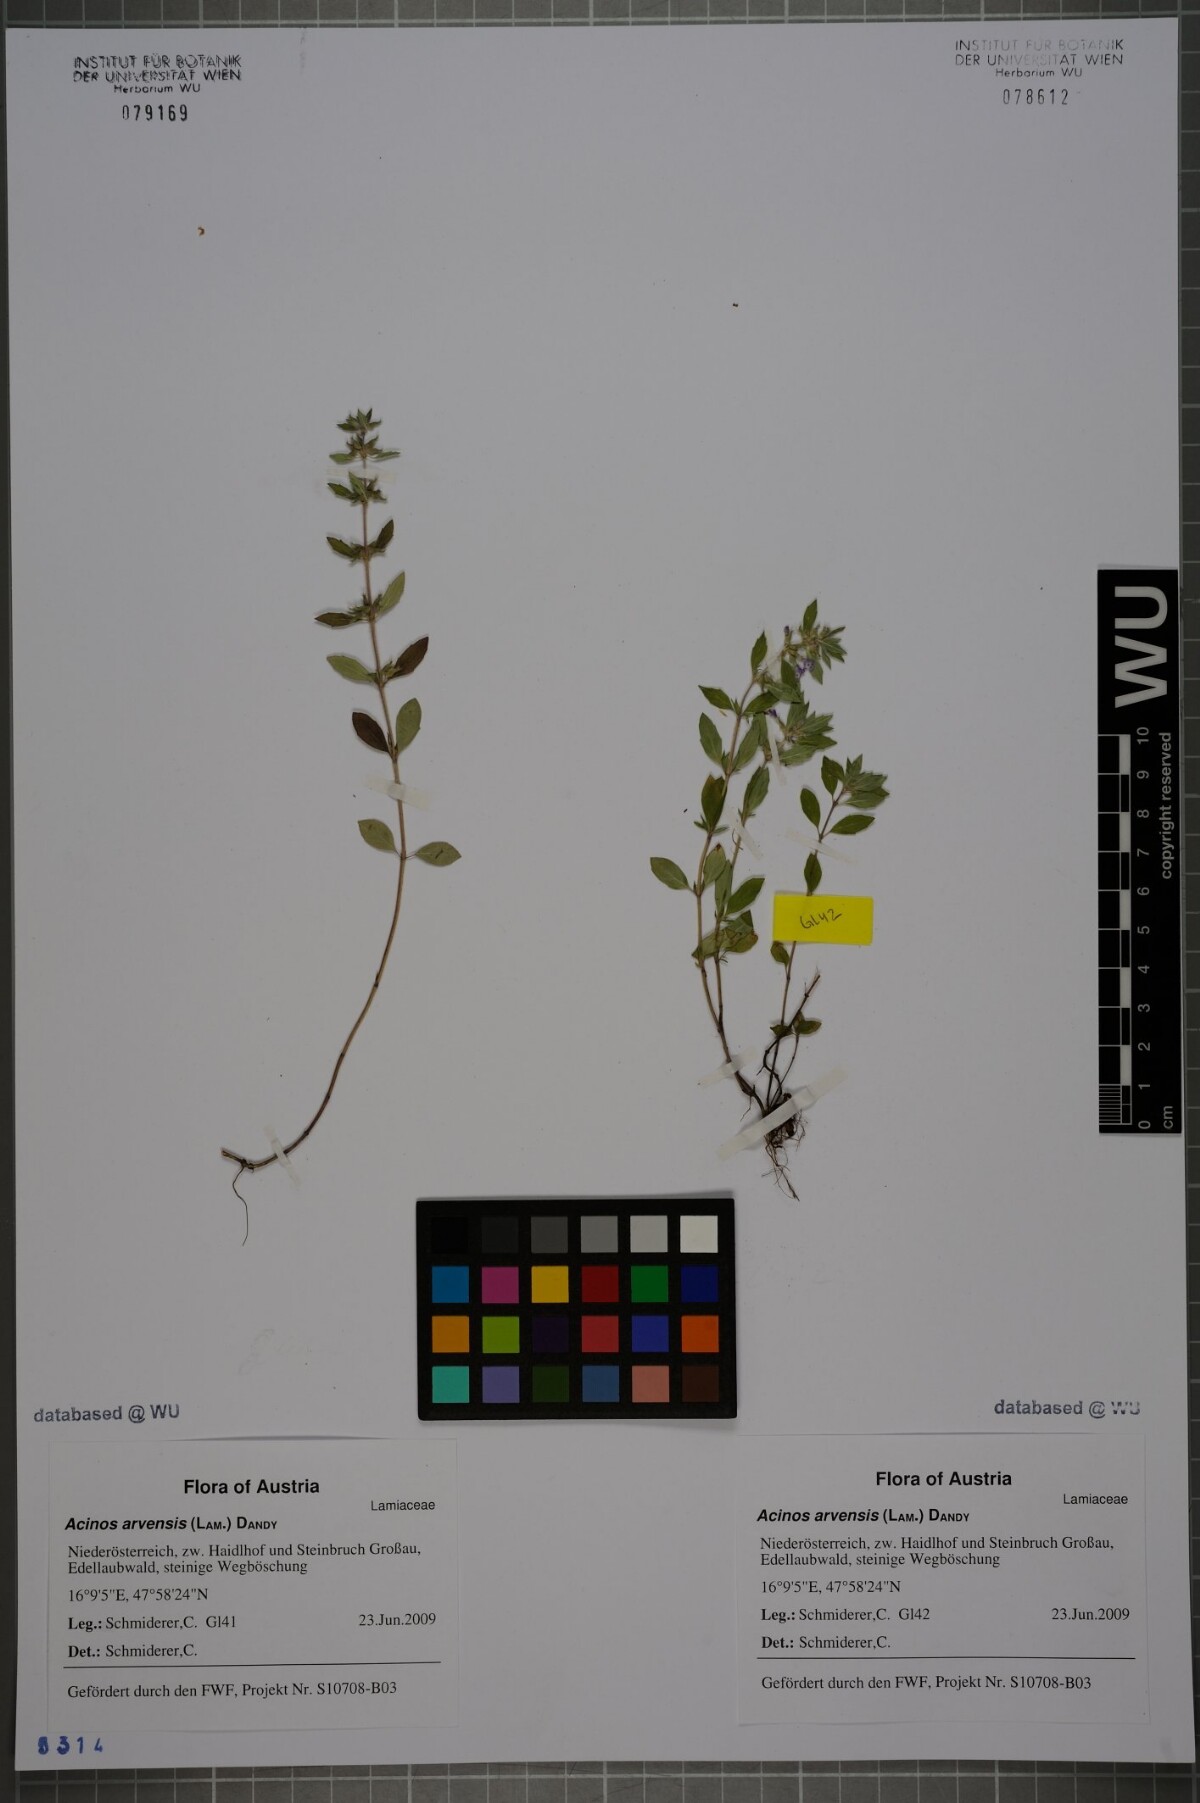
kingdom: Plantae
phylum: Tracheophyta
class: Magnoliopsida
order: Lamiales
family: Lamiaceae
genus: Clinopodium
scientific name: Clinopodium acinos
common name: Basil thyme
